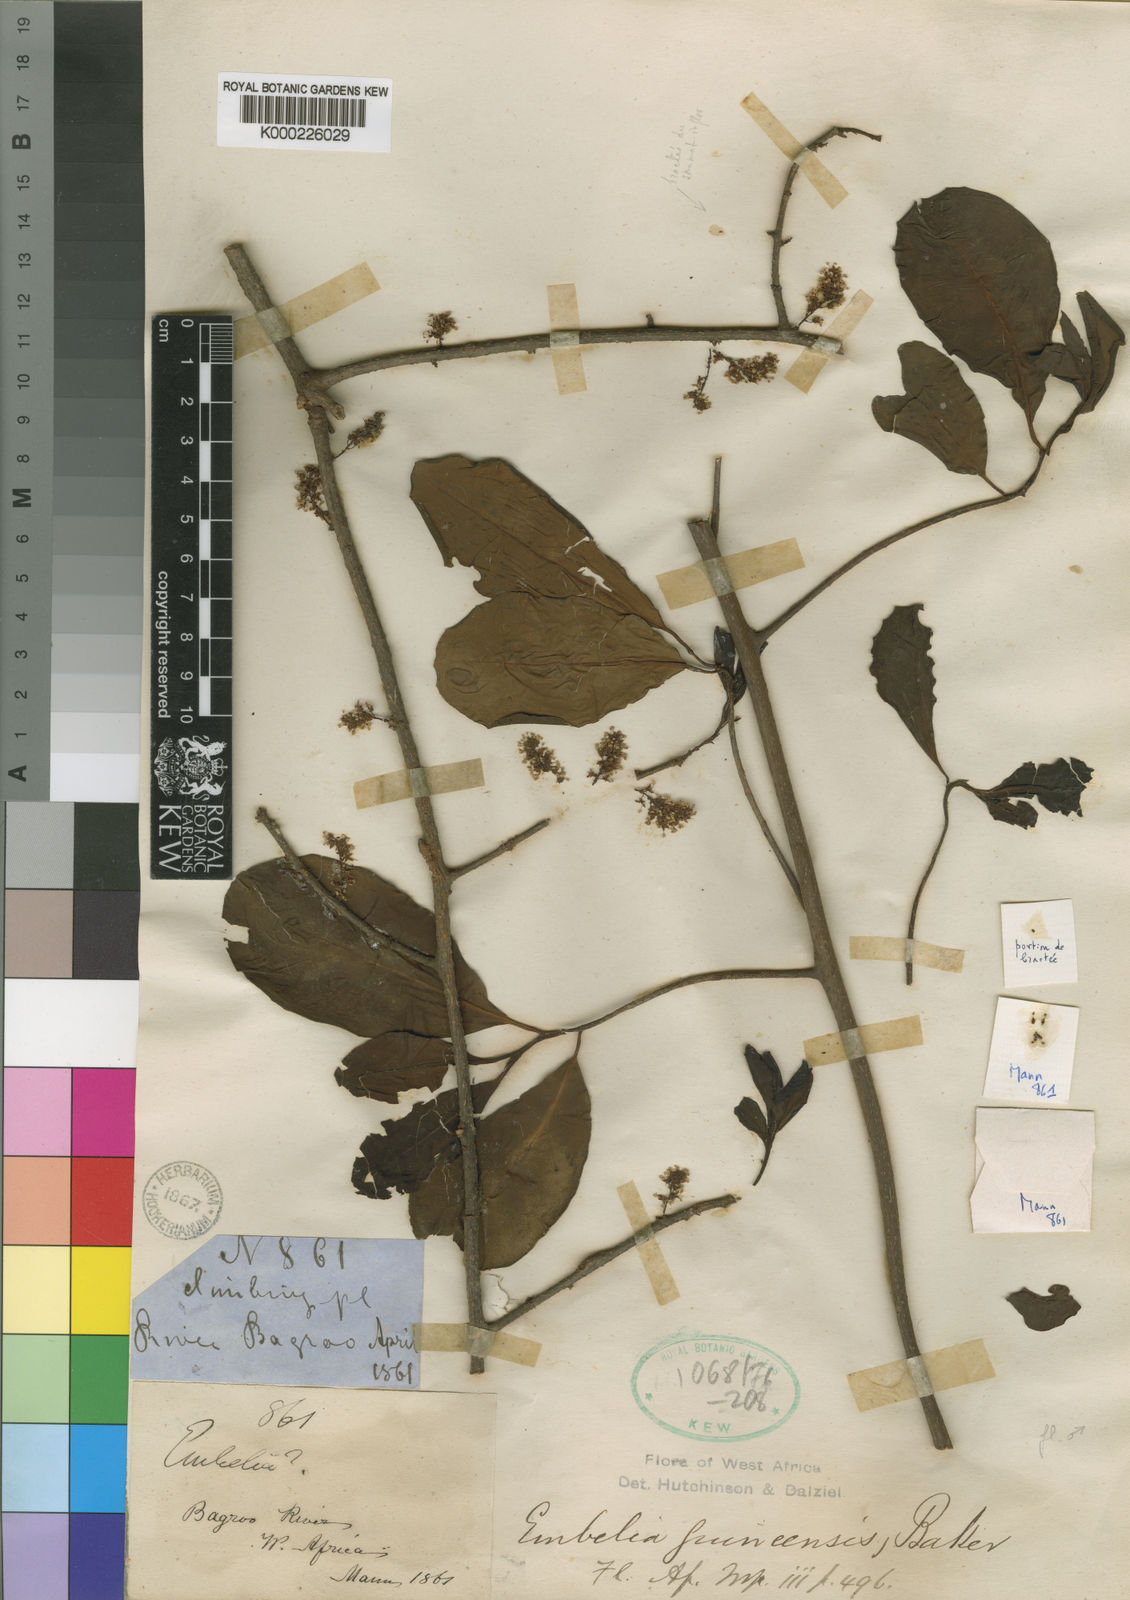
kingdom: Plantae
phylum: Tracheophyta
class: Magnoliopsida
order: Ericales
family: Primulaceae
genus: Embelia
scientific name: Embelia djalonensis
